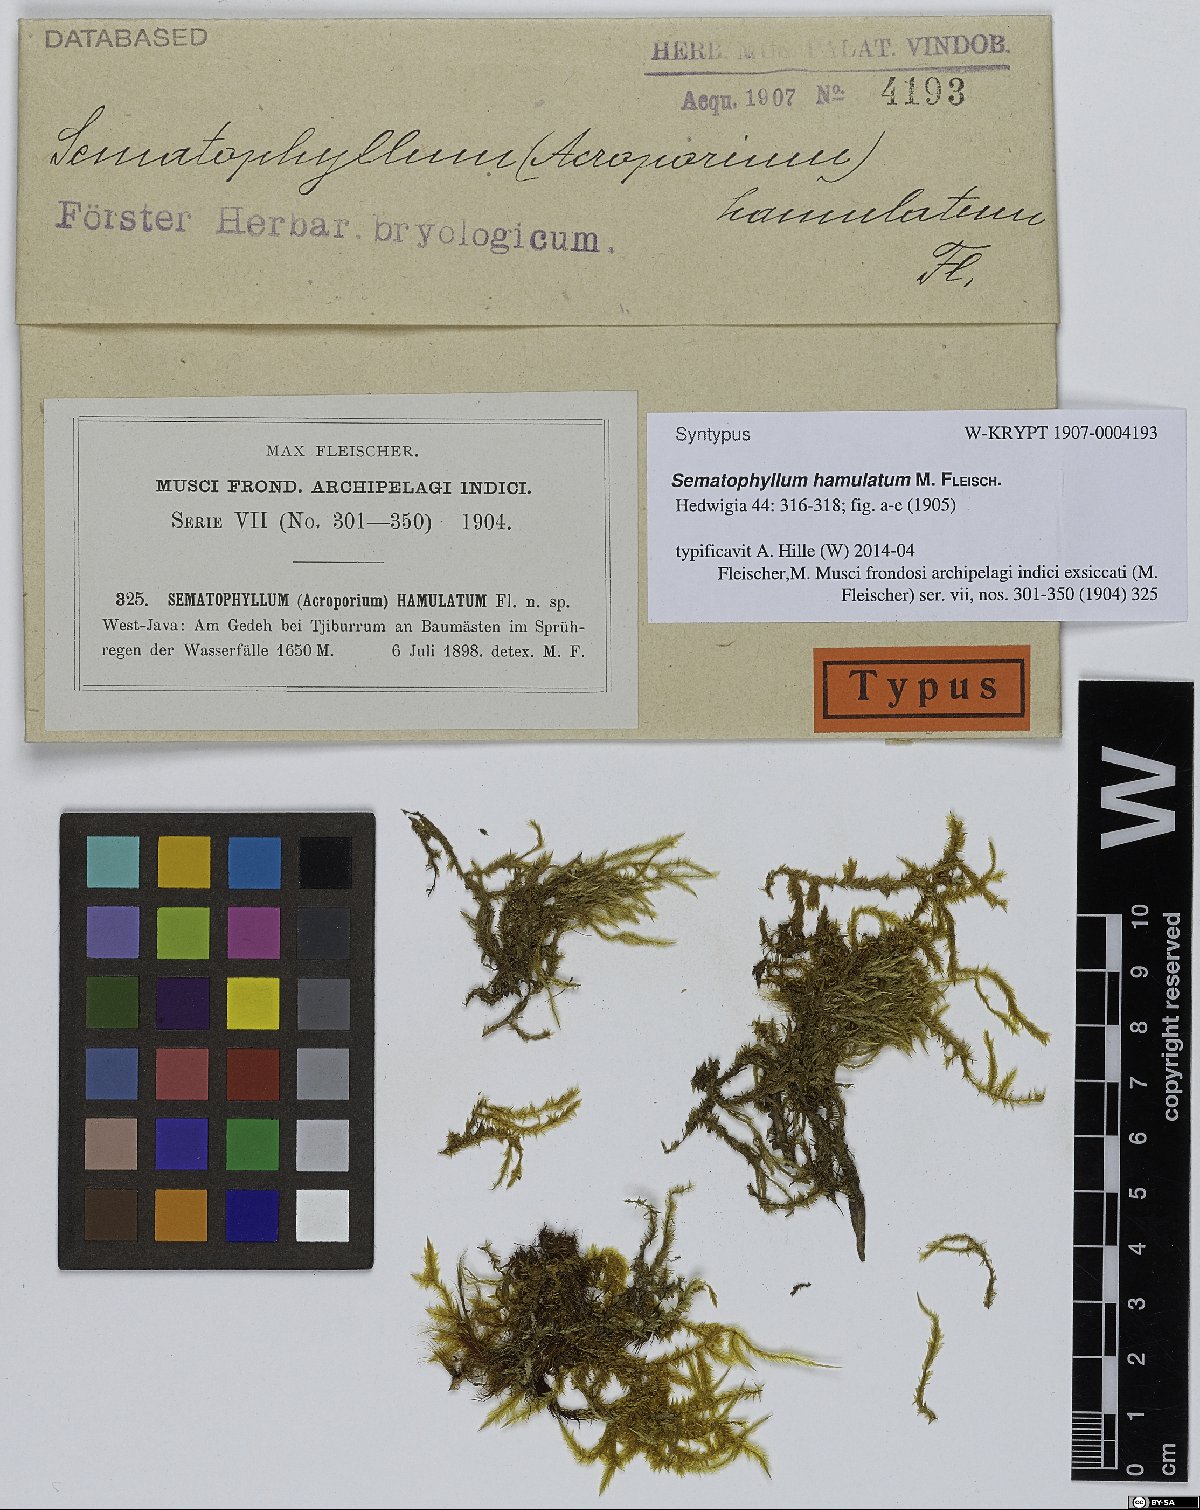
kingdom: Plantae
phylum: Bryophyta
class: Bryopsida
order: Hypnales
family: Sematophyllaceae
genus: Acroporium
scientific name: Acroporium hyalinum
